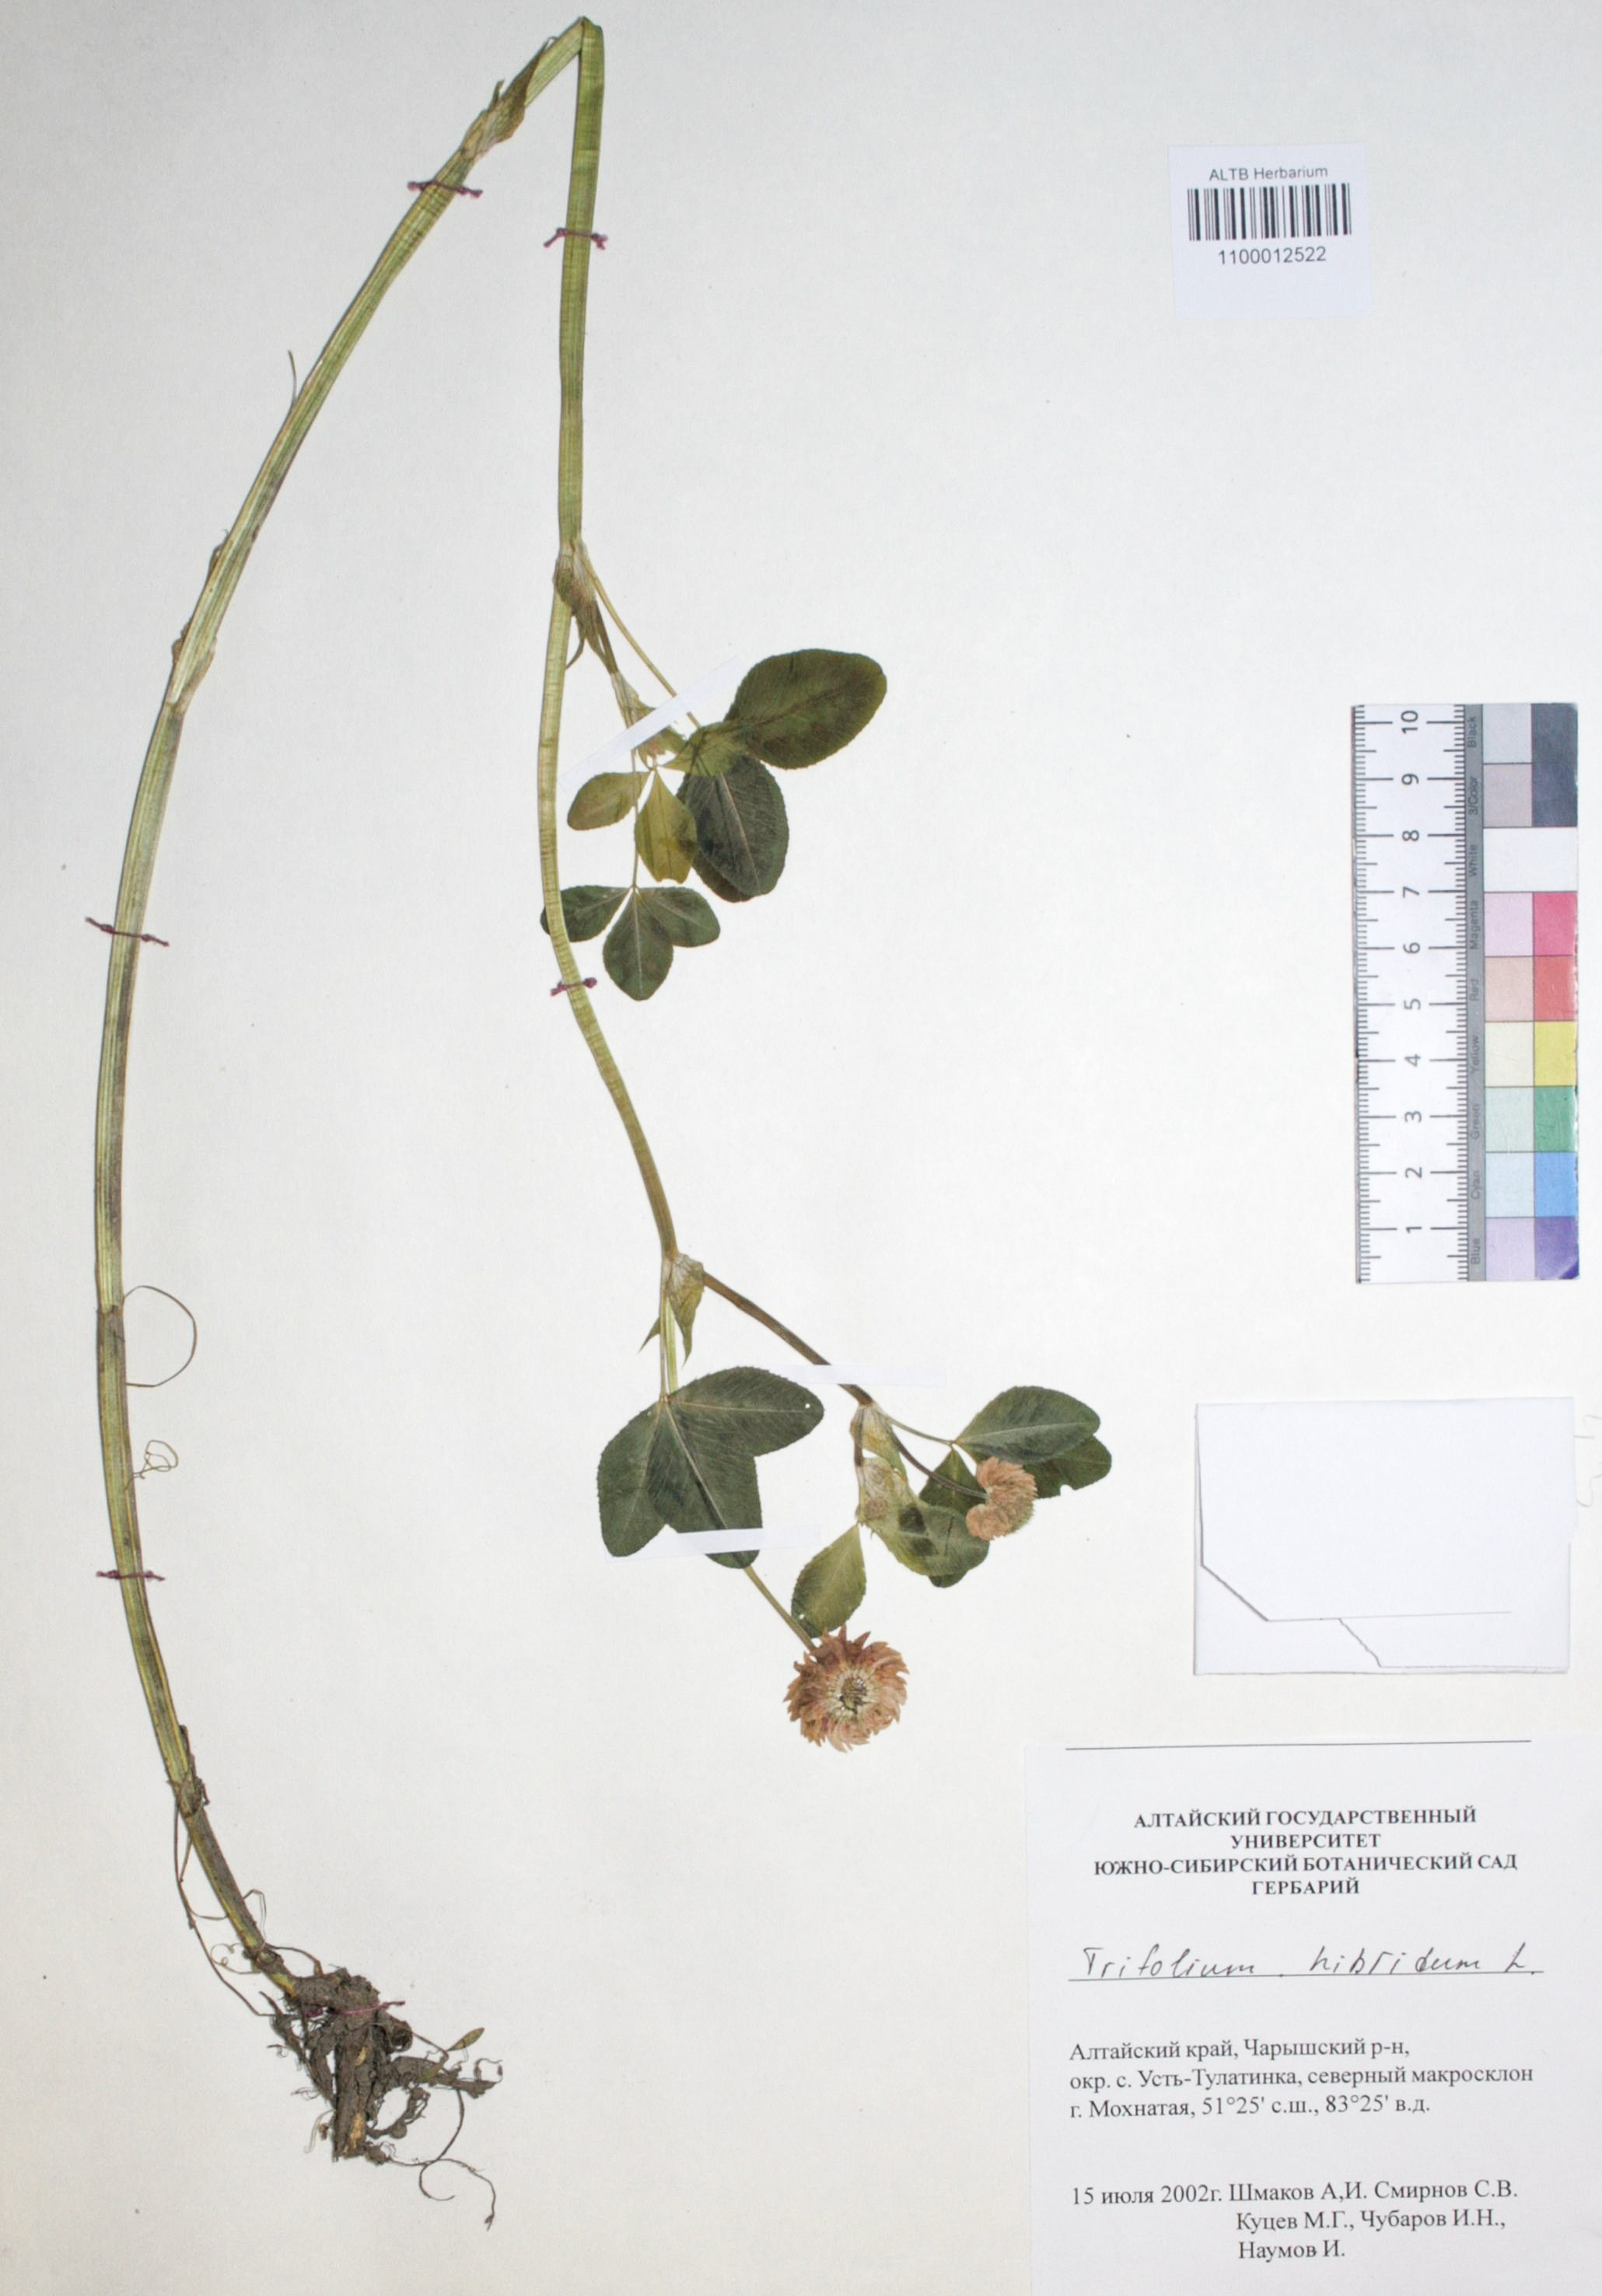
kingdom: Plantae
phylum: Tracheophyta
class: Magnoliopsida
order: Fabales
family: Fabaceae
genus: Trifolium
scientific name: Trifolium hybridum
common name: Alsike clover
